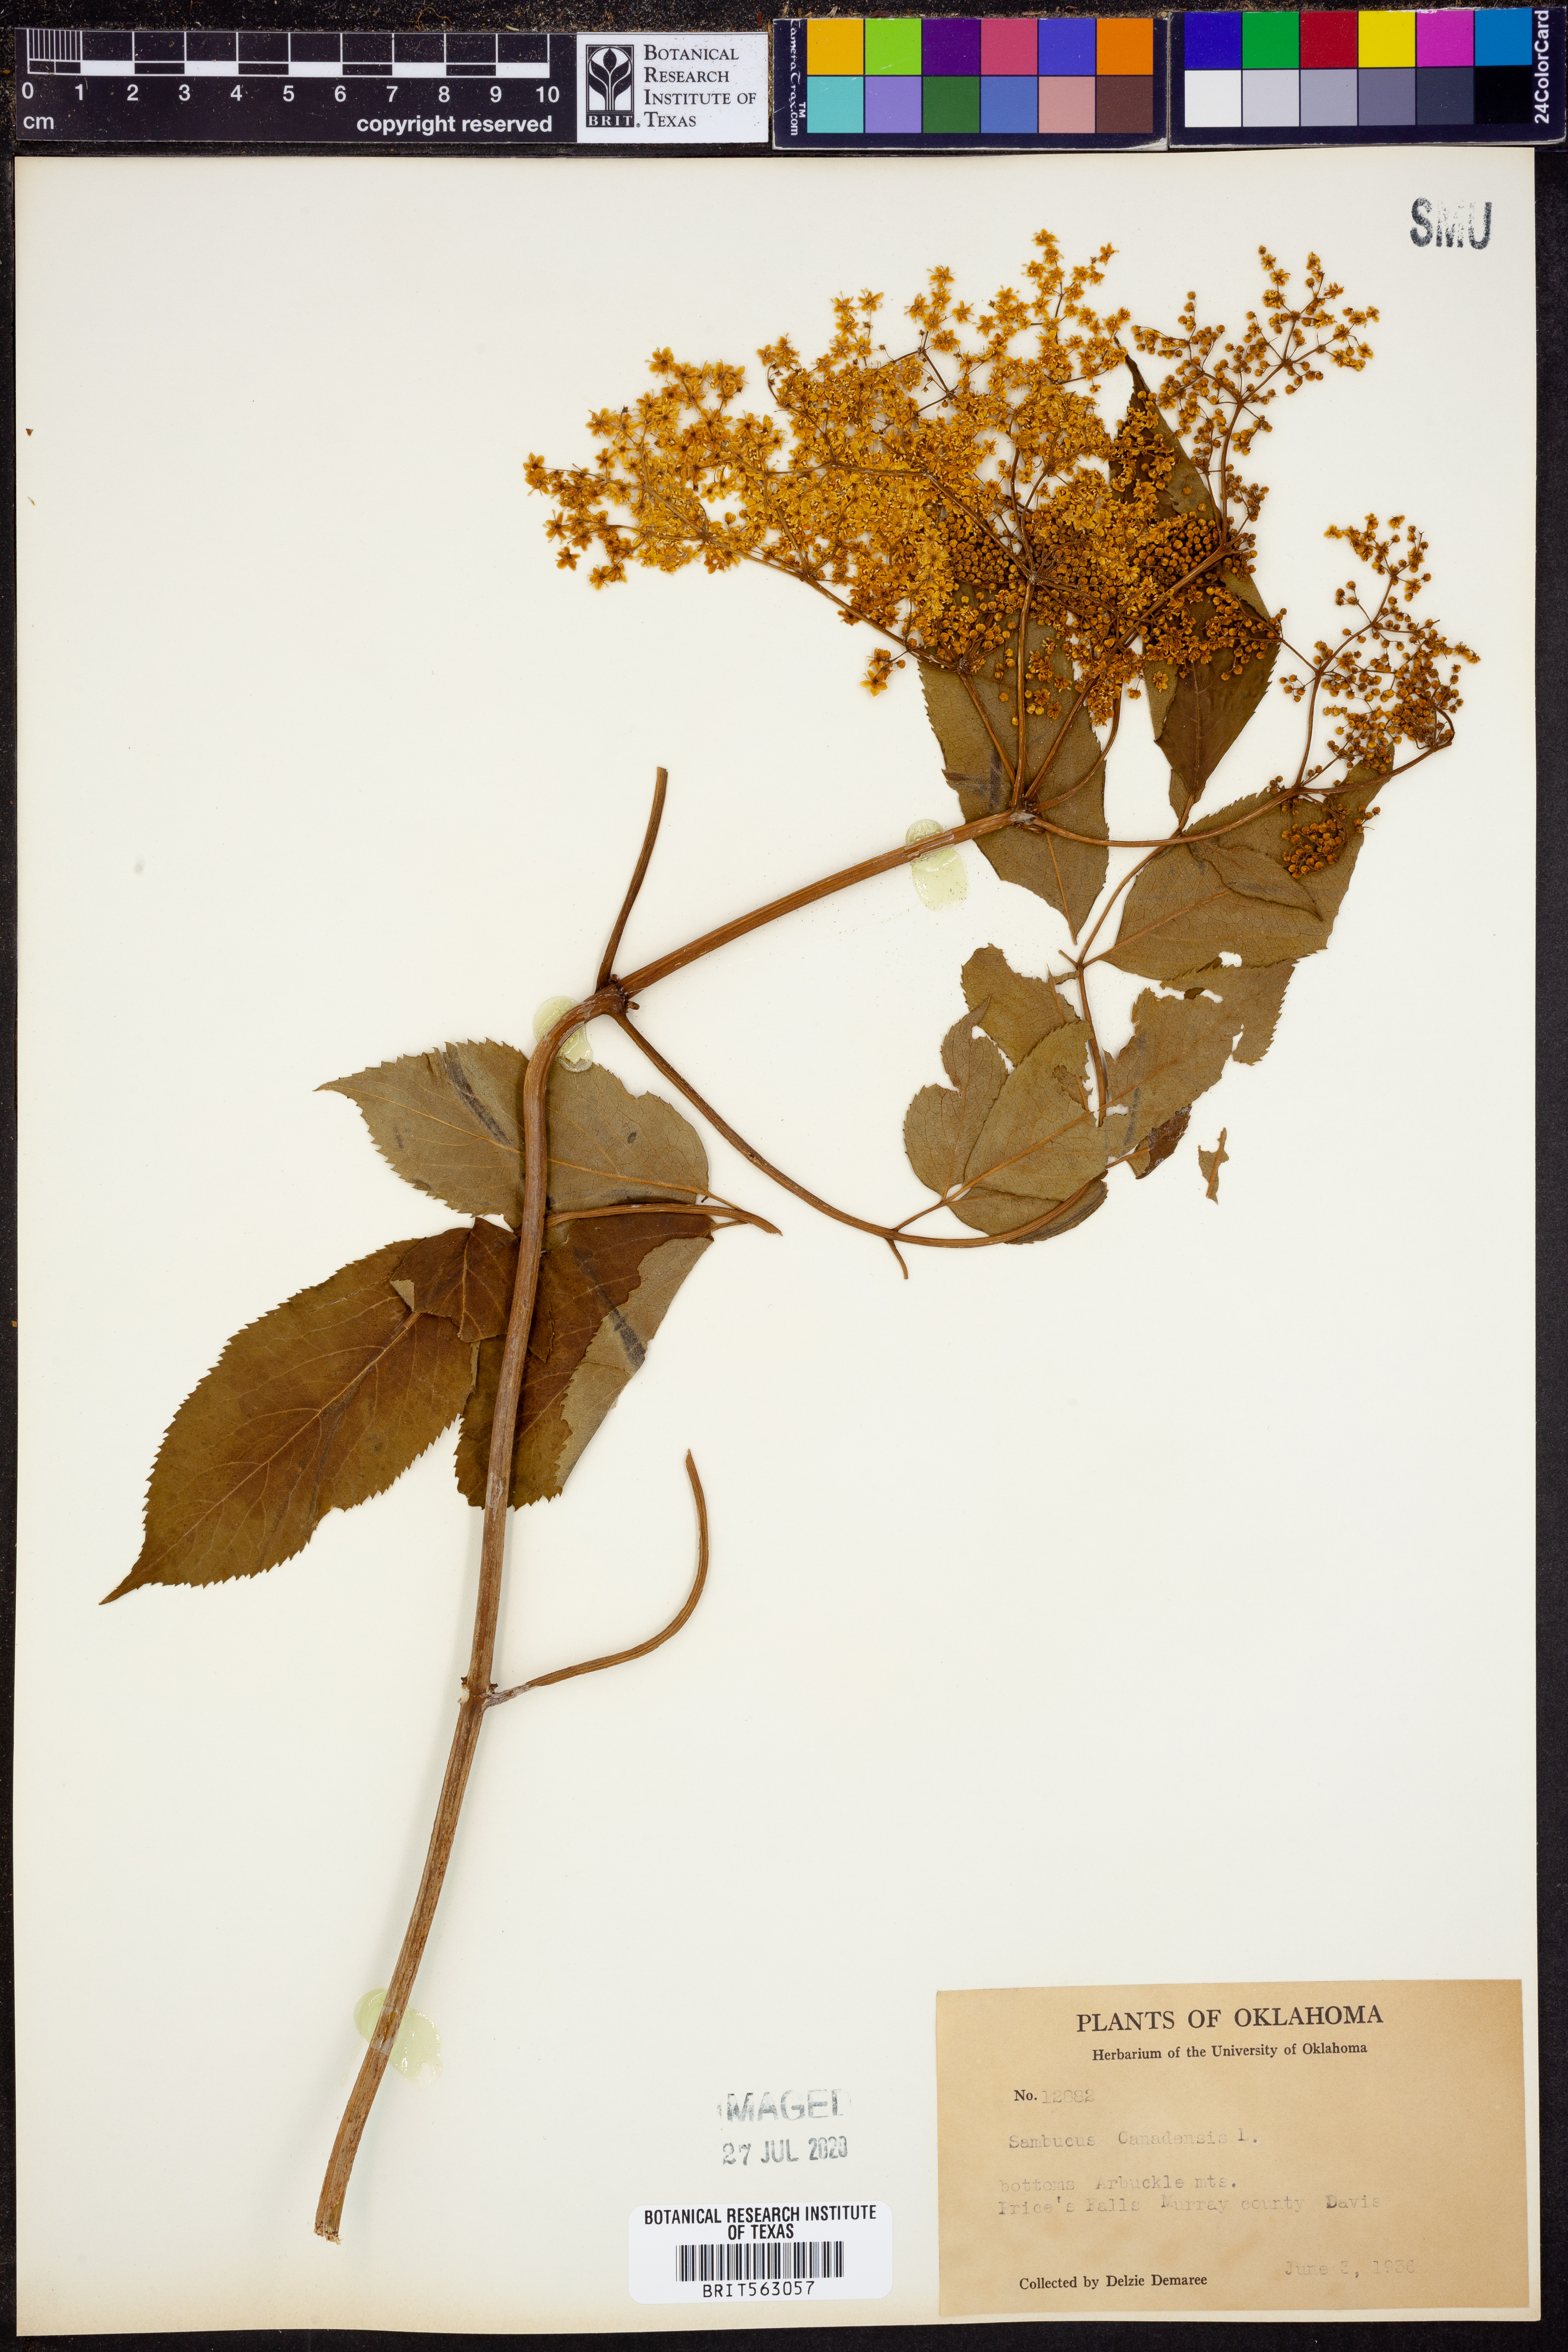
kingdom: Plantae
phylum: Tracheophyta
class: Magnoliopsida
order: Dipsacales
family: Viburnaceae
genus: Sambucus
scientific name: Sambucus canadensis
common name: American elder
